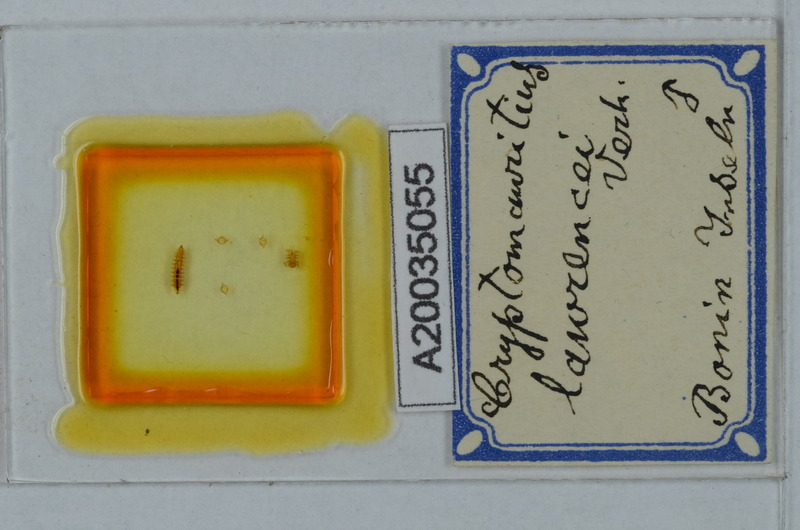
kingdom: Animalia
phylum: Arthropoda
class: Diplopoda
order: Polydesmida
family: Cryptodesmidae
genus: Cryptodesmus
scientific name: Cryptodesmus
